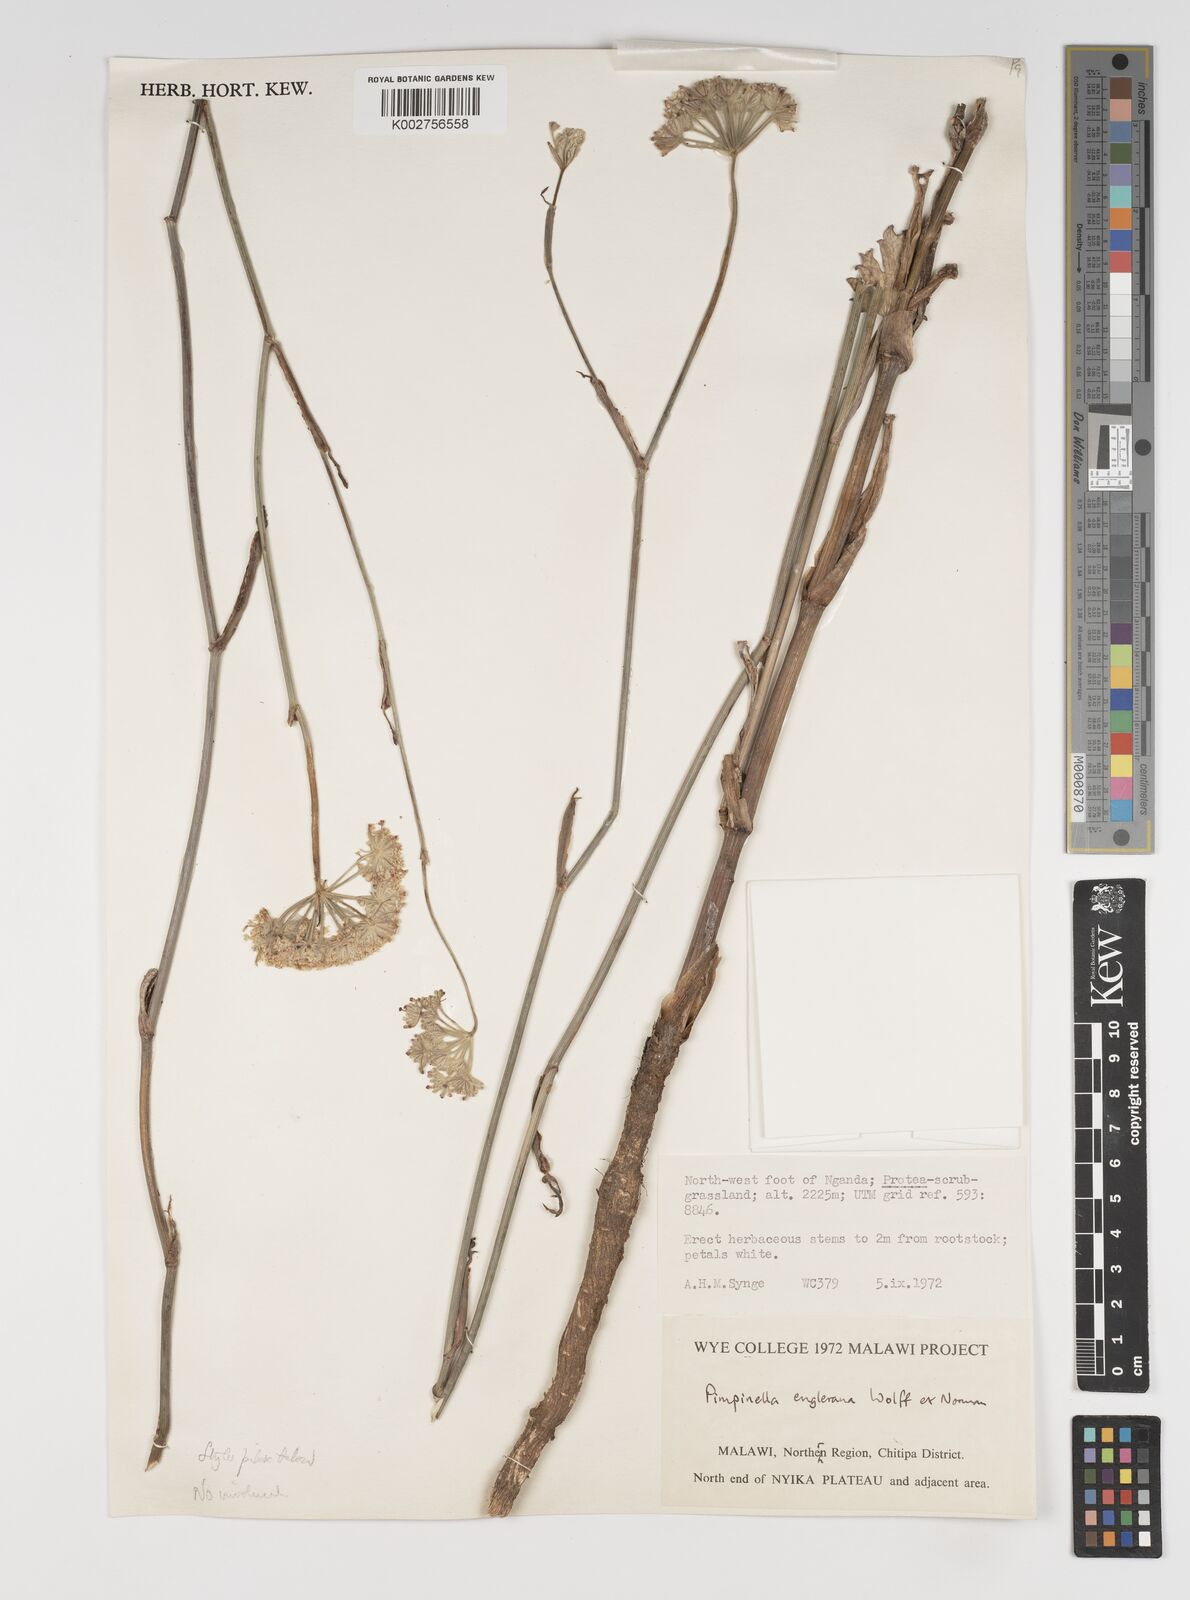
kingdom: Plantae
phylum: Tracheophyta
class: Magnoliopsida
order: Apiales
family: Apiaceae
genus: Pimpinella
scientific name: Pimpinella kingdon-wardii
